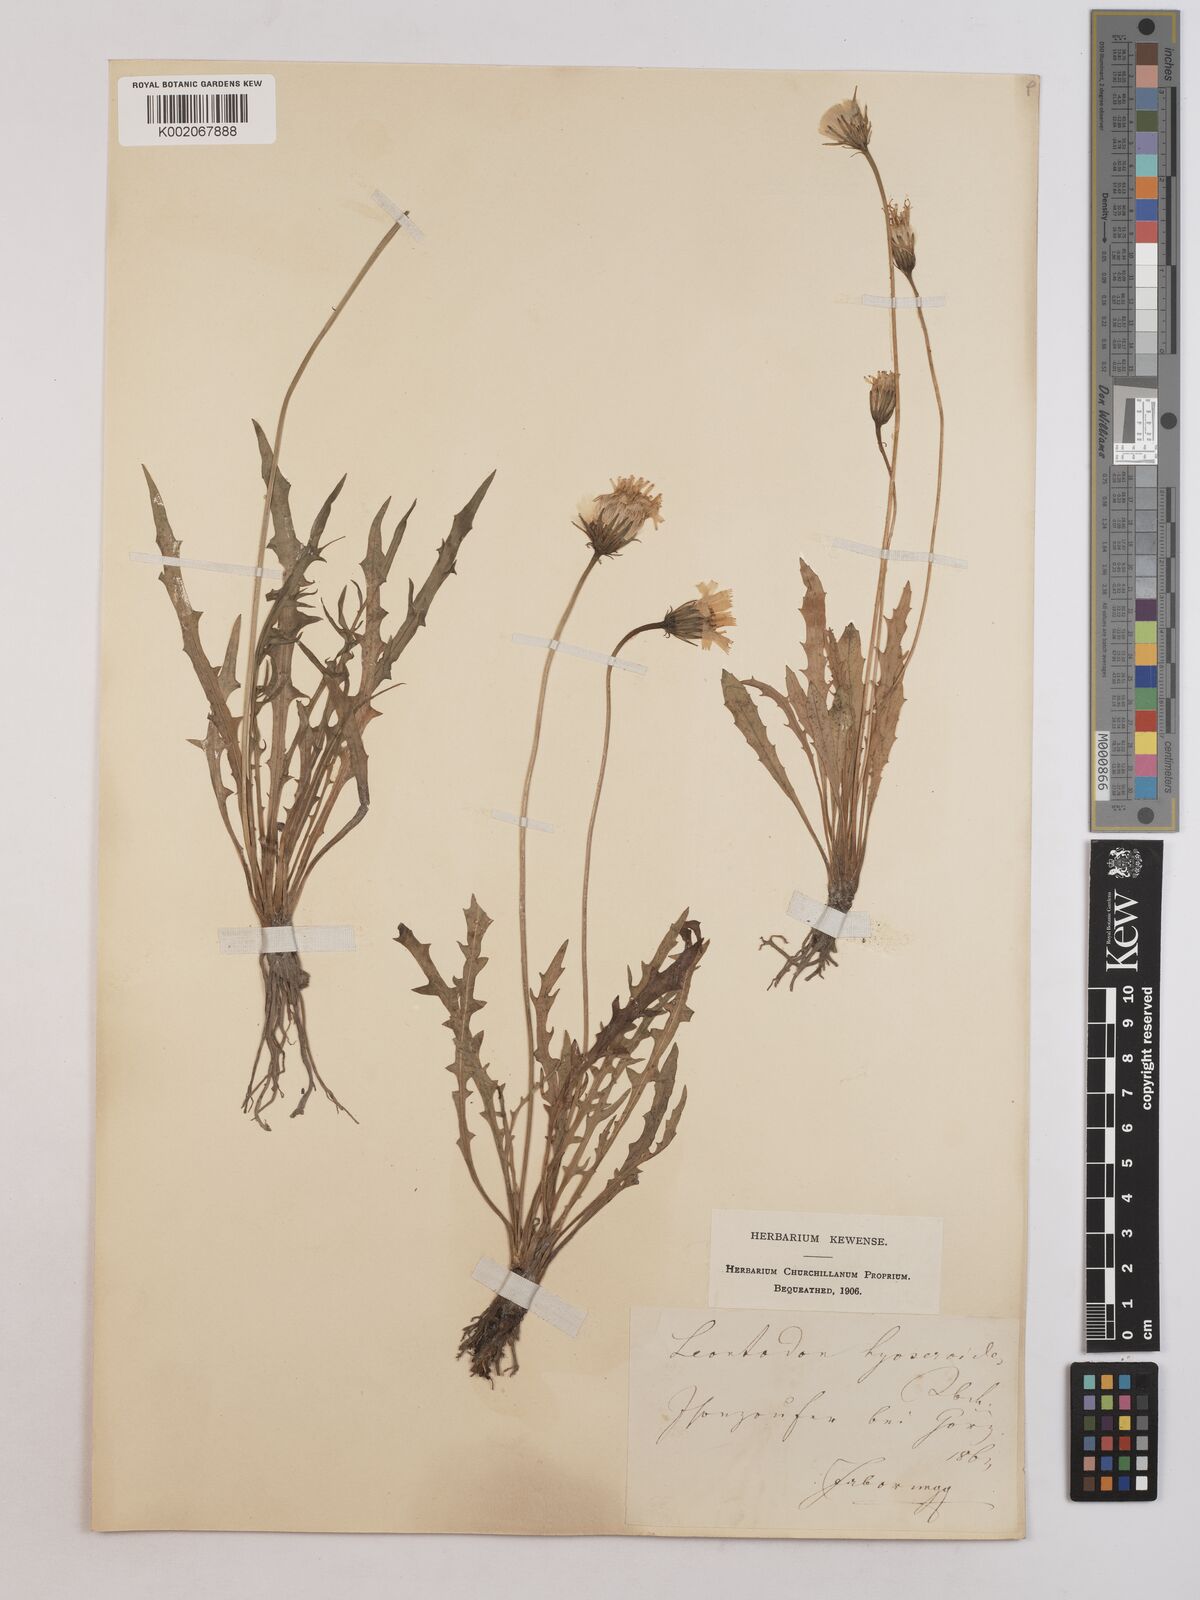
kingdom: Plantae
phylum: Tracheophyta
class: Magnoliopsida
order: Asterales
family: Asteraceae
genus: Leontodon
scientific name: Leontodon hispidus
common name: Rough hawkbit
